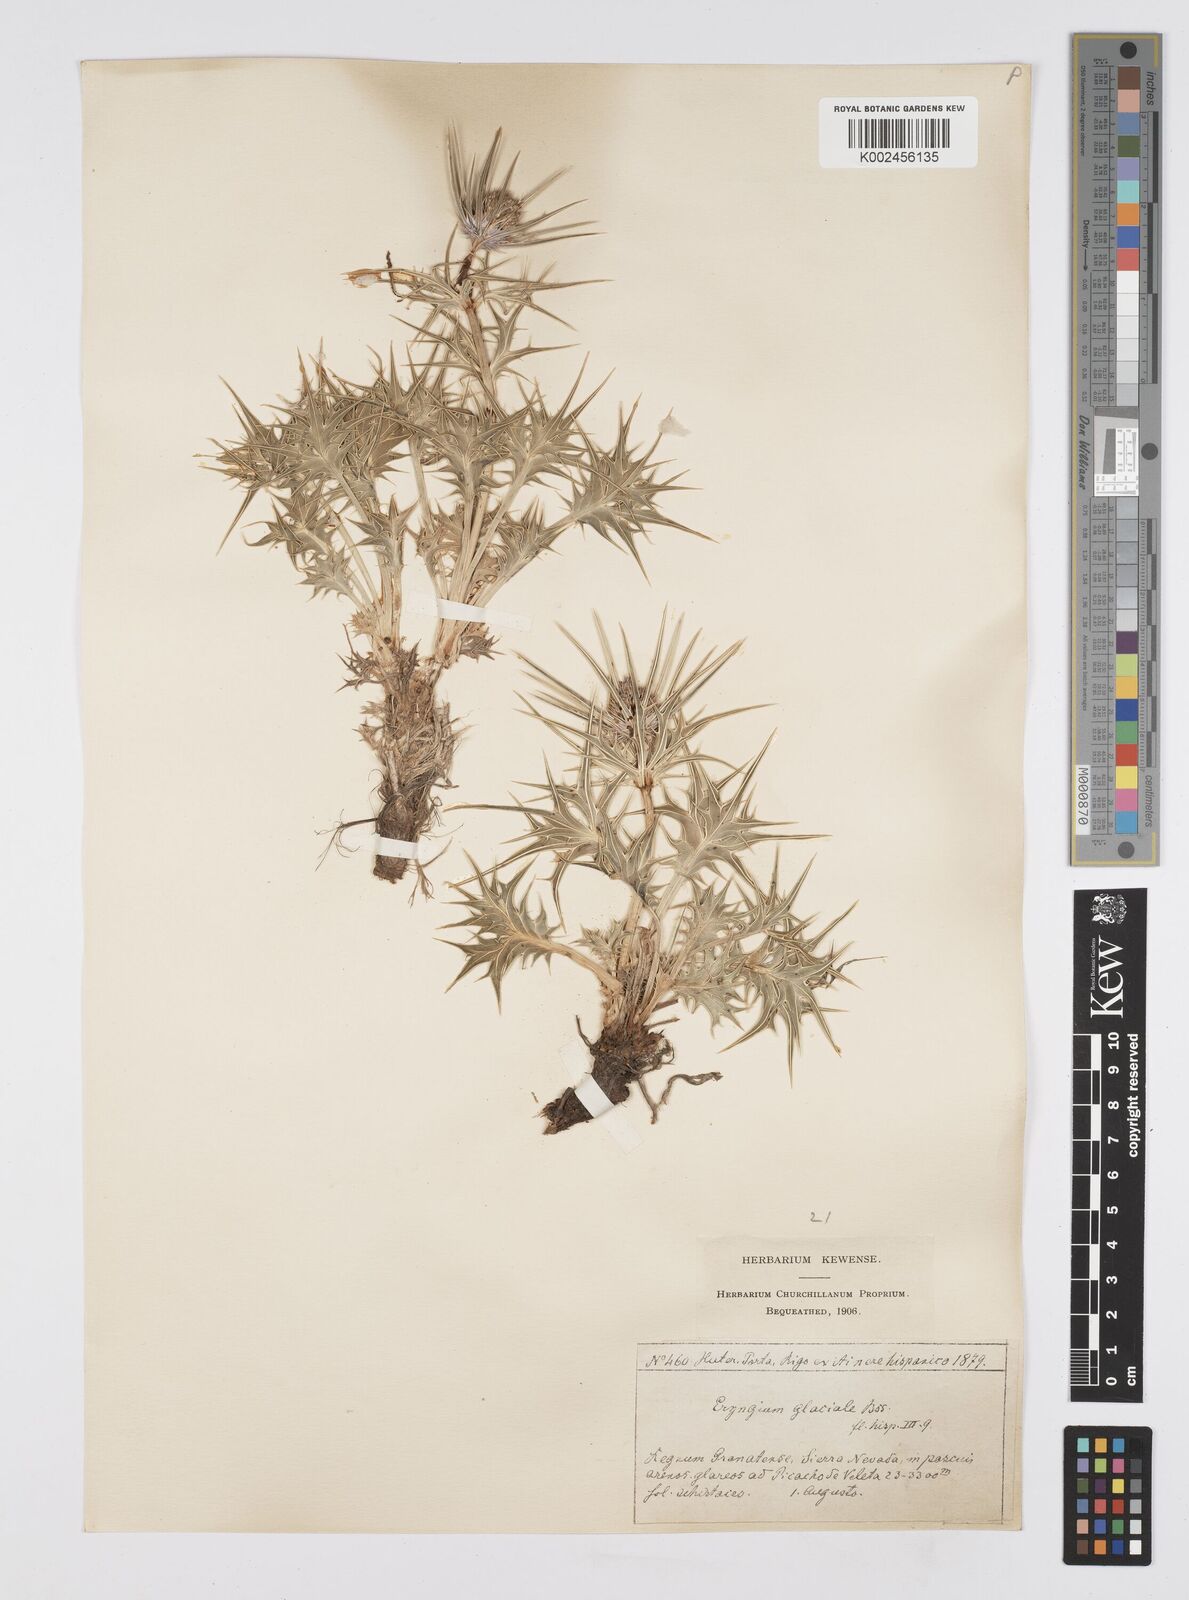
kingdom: Plantae
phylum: Tracheophyta
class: Magnoliopsida
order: Apiales
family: Apiaceae
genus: Eryngium
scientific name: Eryngium glaciale
